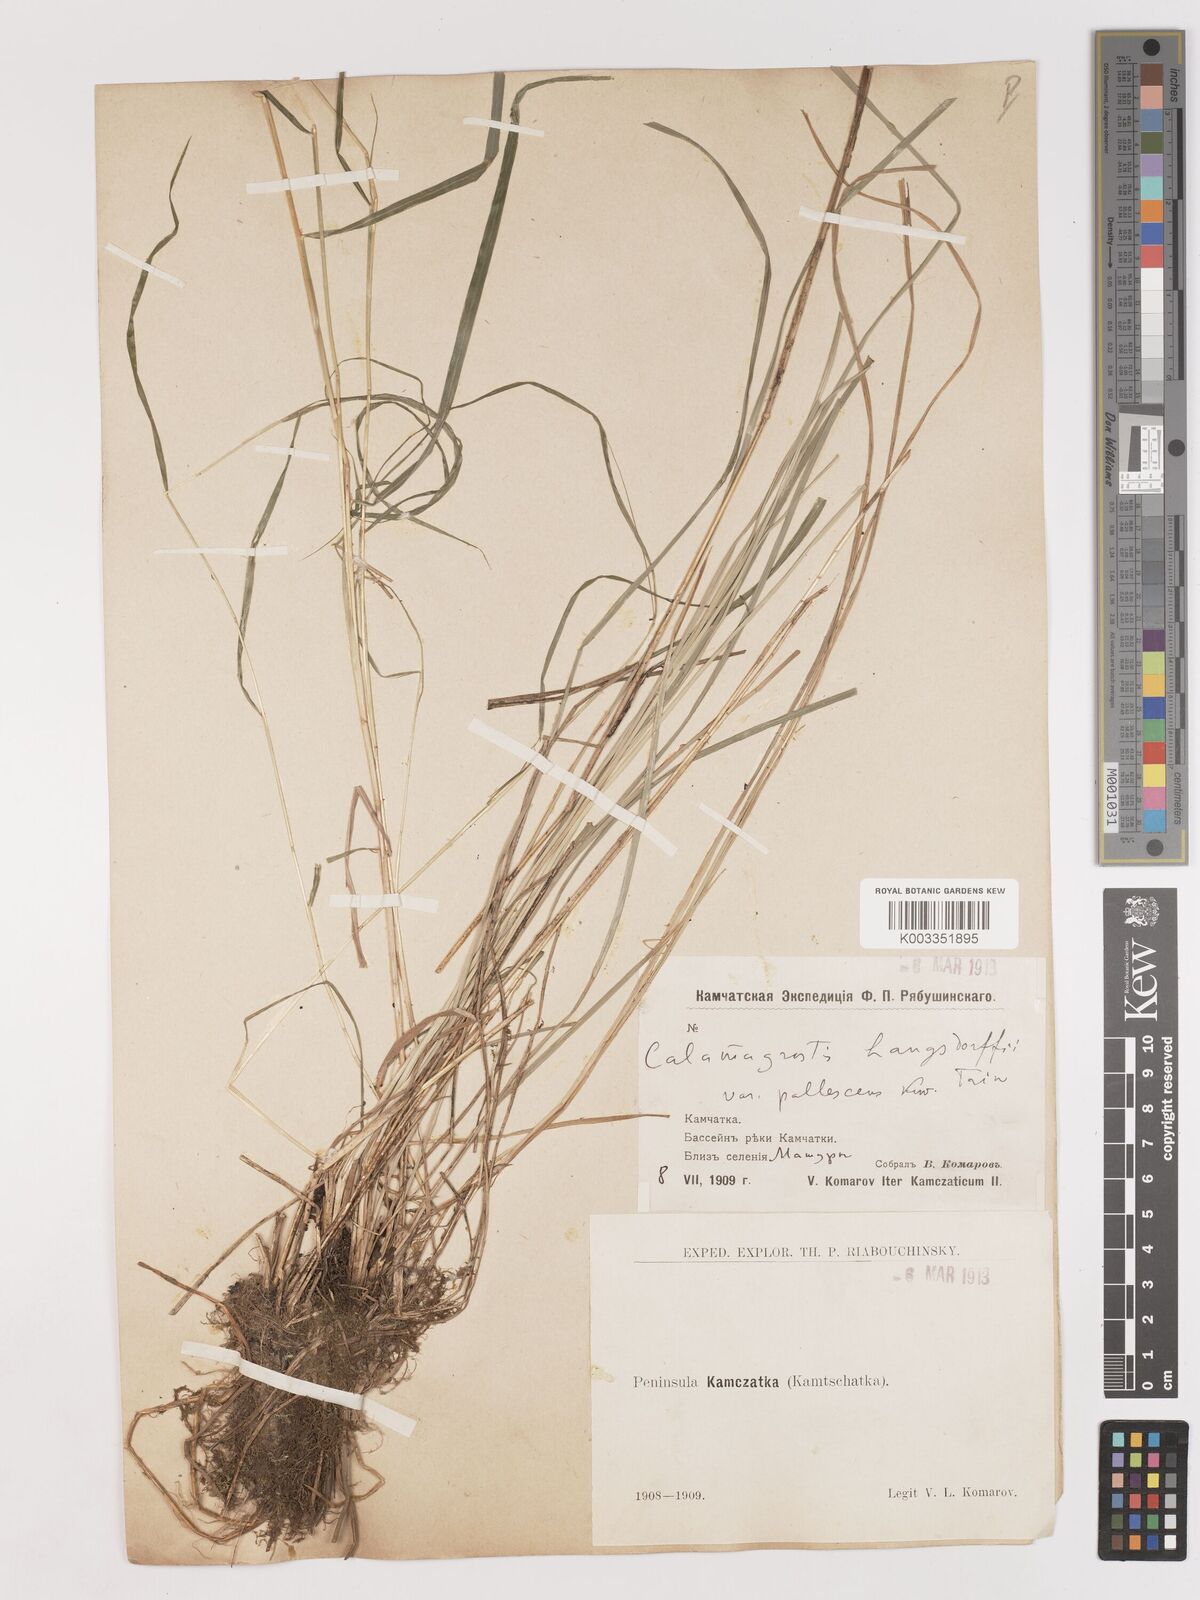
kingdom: Plantae
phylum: Tracheophyta
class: Liliopsida
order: Poales
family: Poaceae
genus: Calamagrostis
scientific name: Calamagrostis purpurea
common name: Scandinavian small-reed
